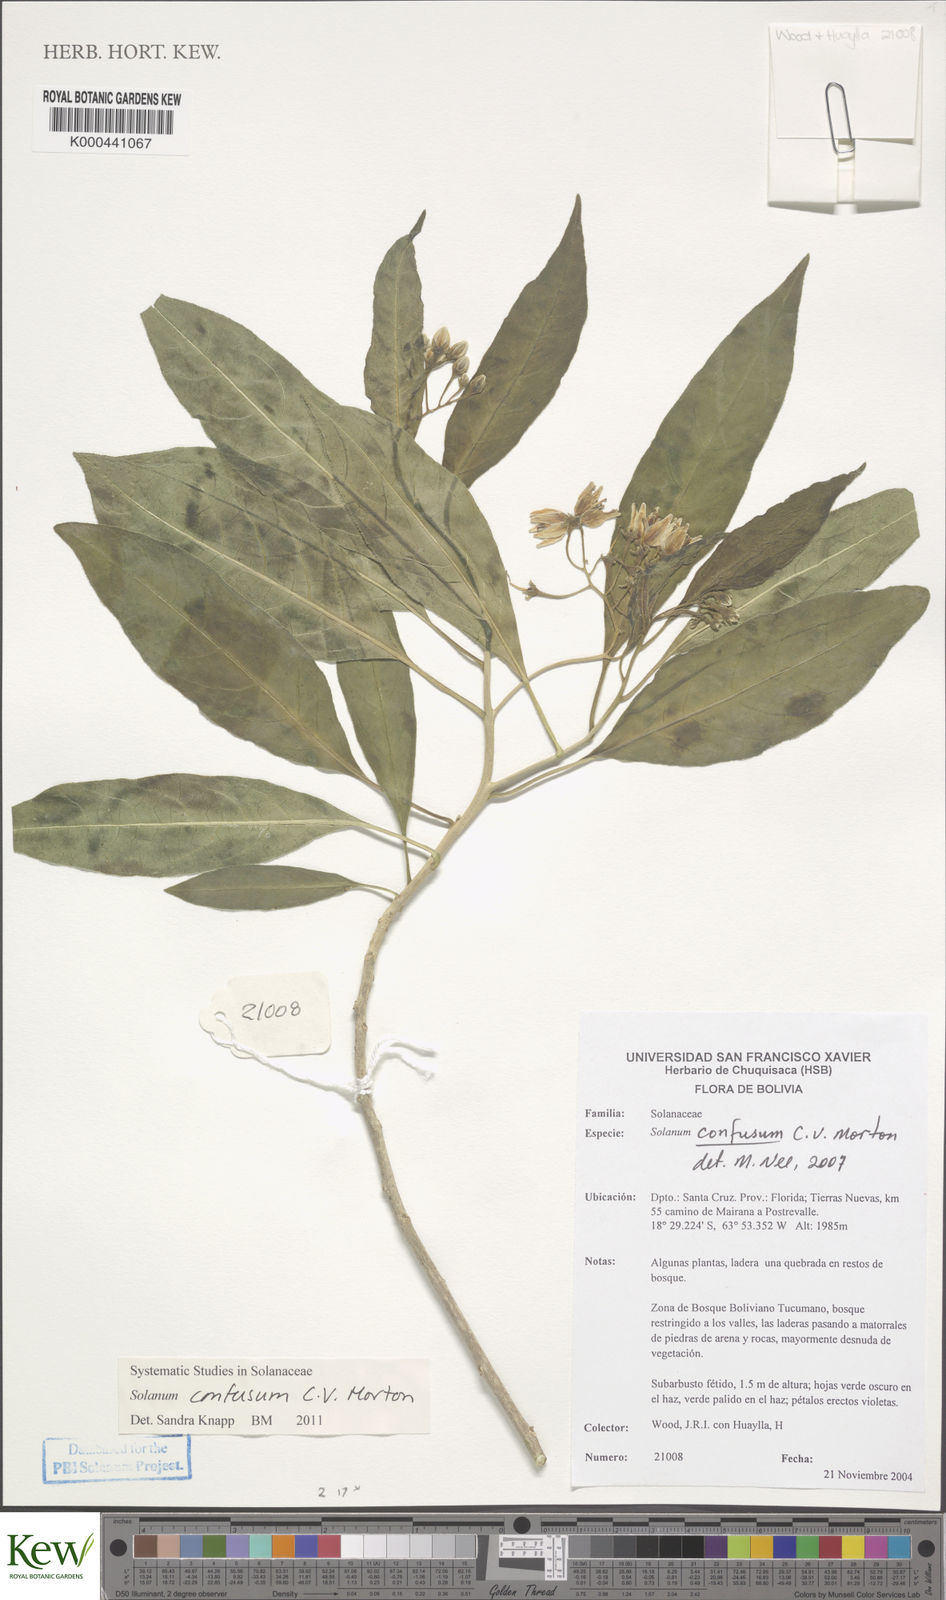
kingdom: Plantae
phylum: Tracheophyta
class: Magnoliopsida
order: Solanales
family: Solanaceae
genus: Solanum
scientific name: Solanum confusum
